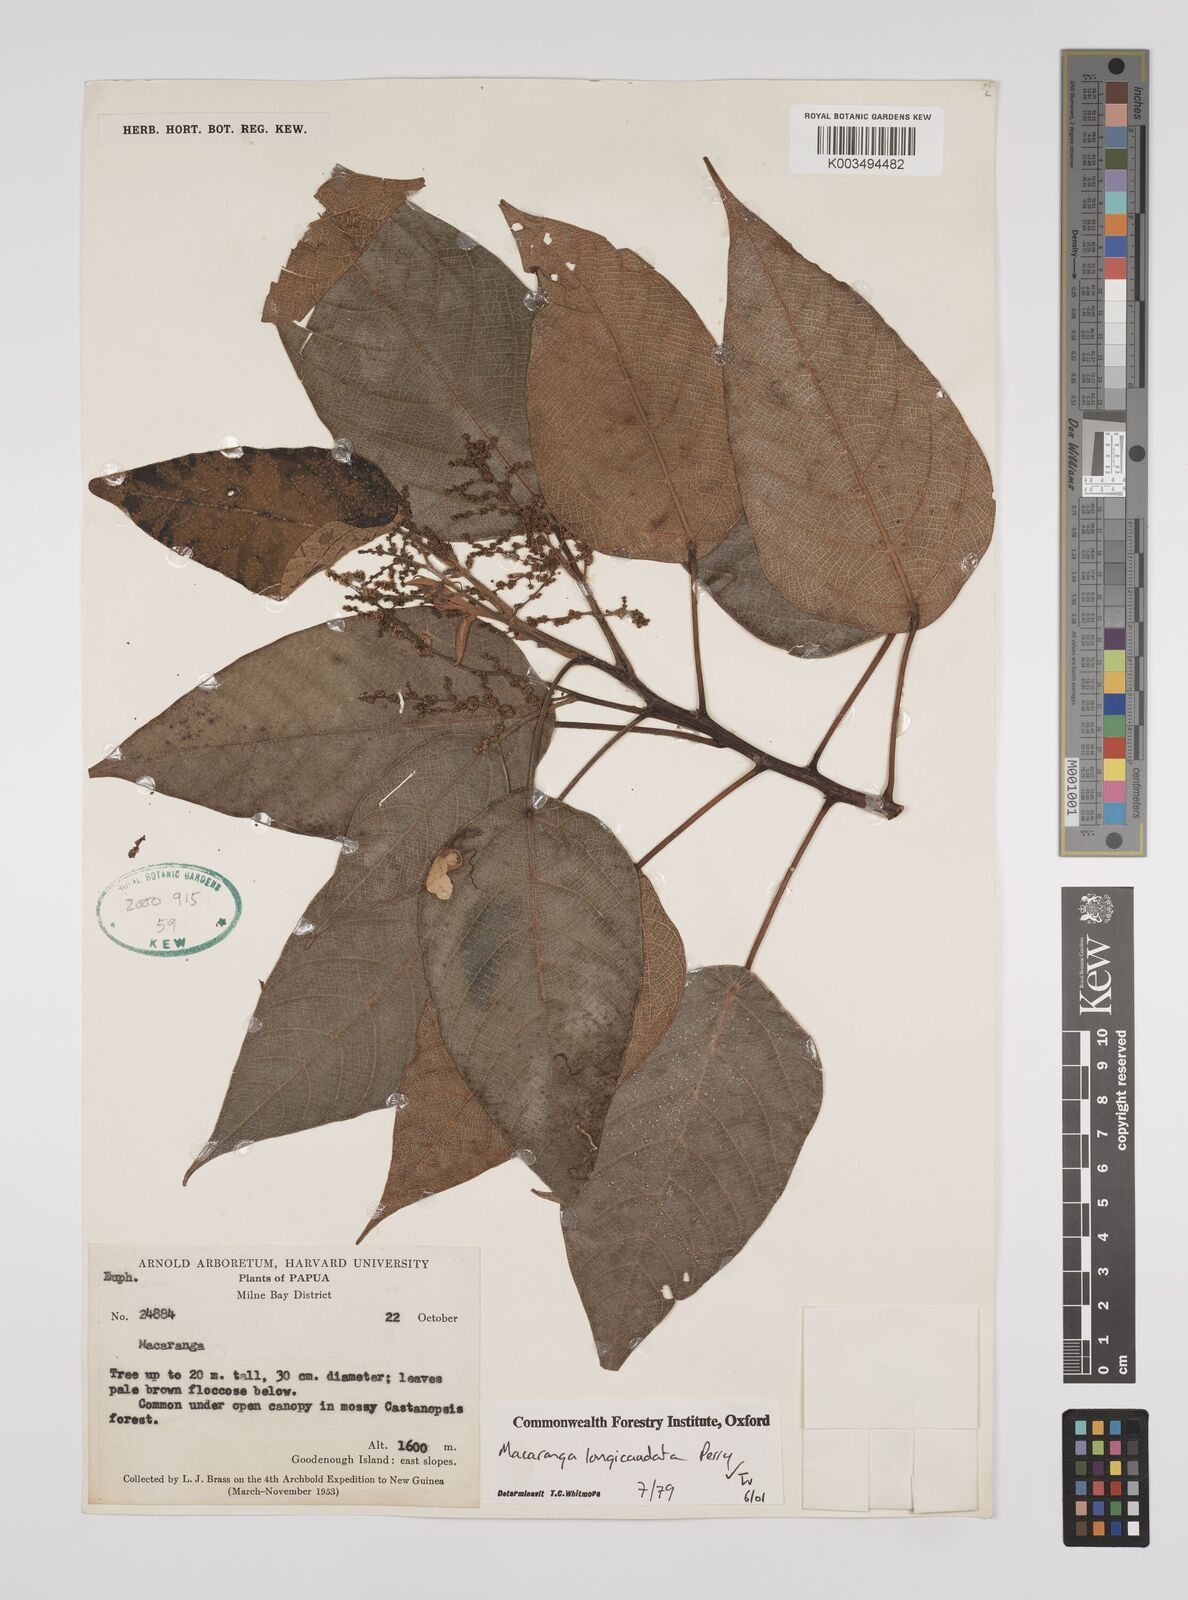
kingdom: Plantae
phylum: Tracheophyta
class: Magnoliopsida
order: Malpighiales
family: Euphorbiaceae
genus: Macaranga
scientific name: Macaranga longicaudata
